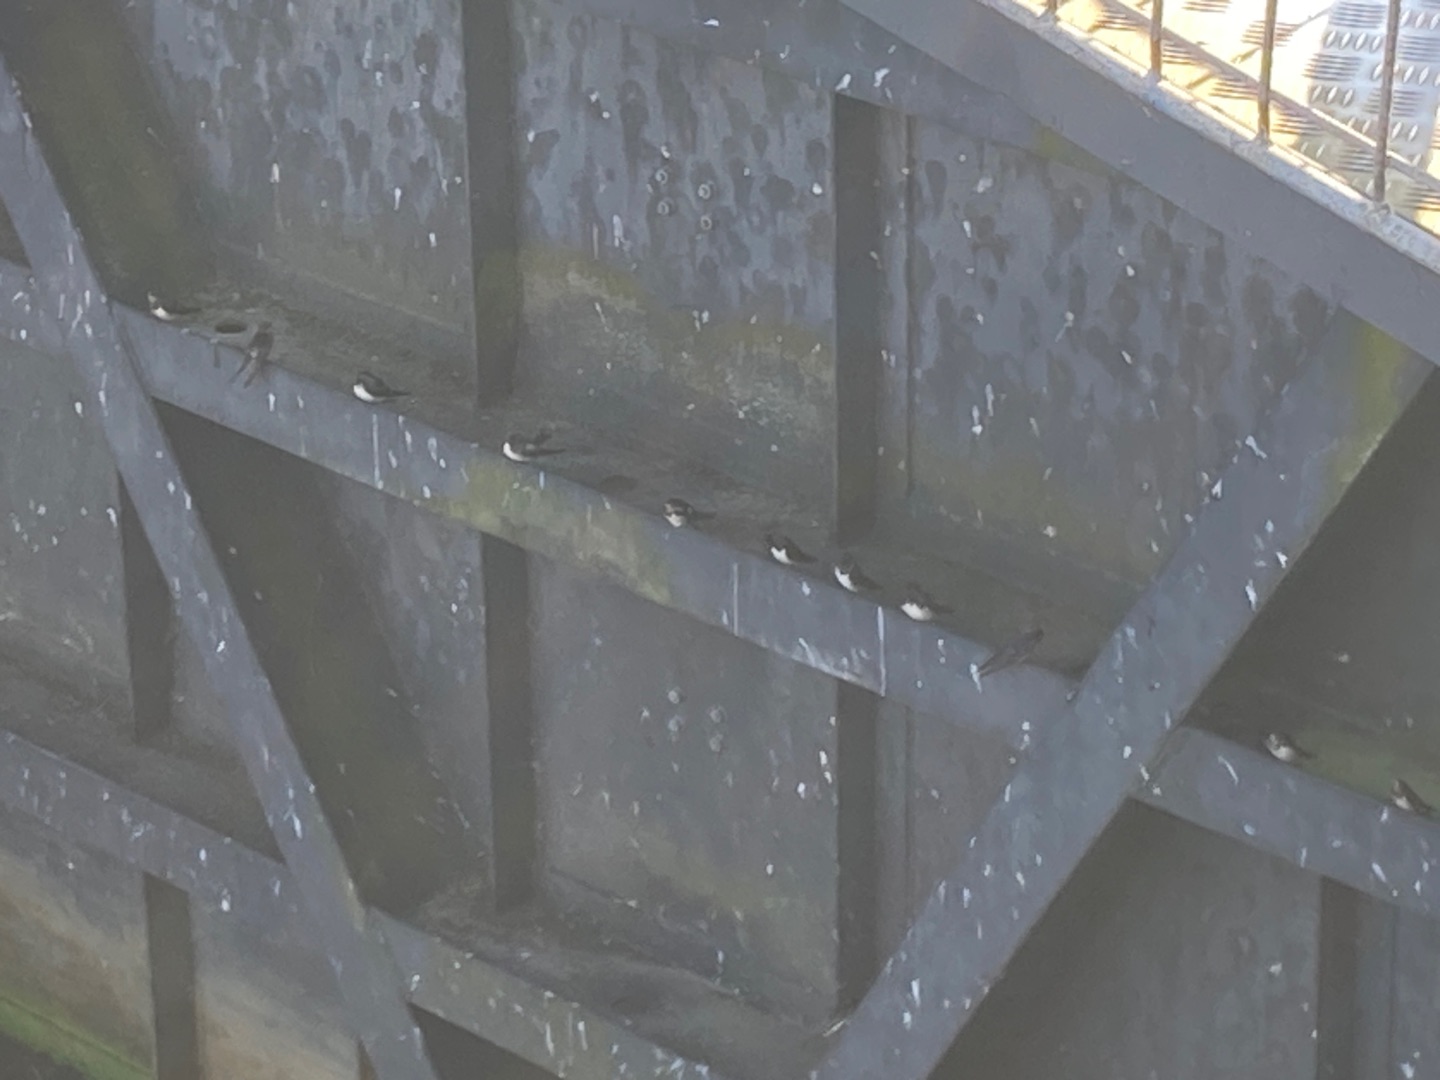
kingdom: Animalia
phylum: Chordata
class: Aves
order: Passeriformes
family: Hirundinidae
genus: Hirundo
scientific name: Hirundo rustica
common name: Landsvale
